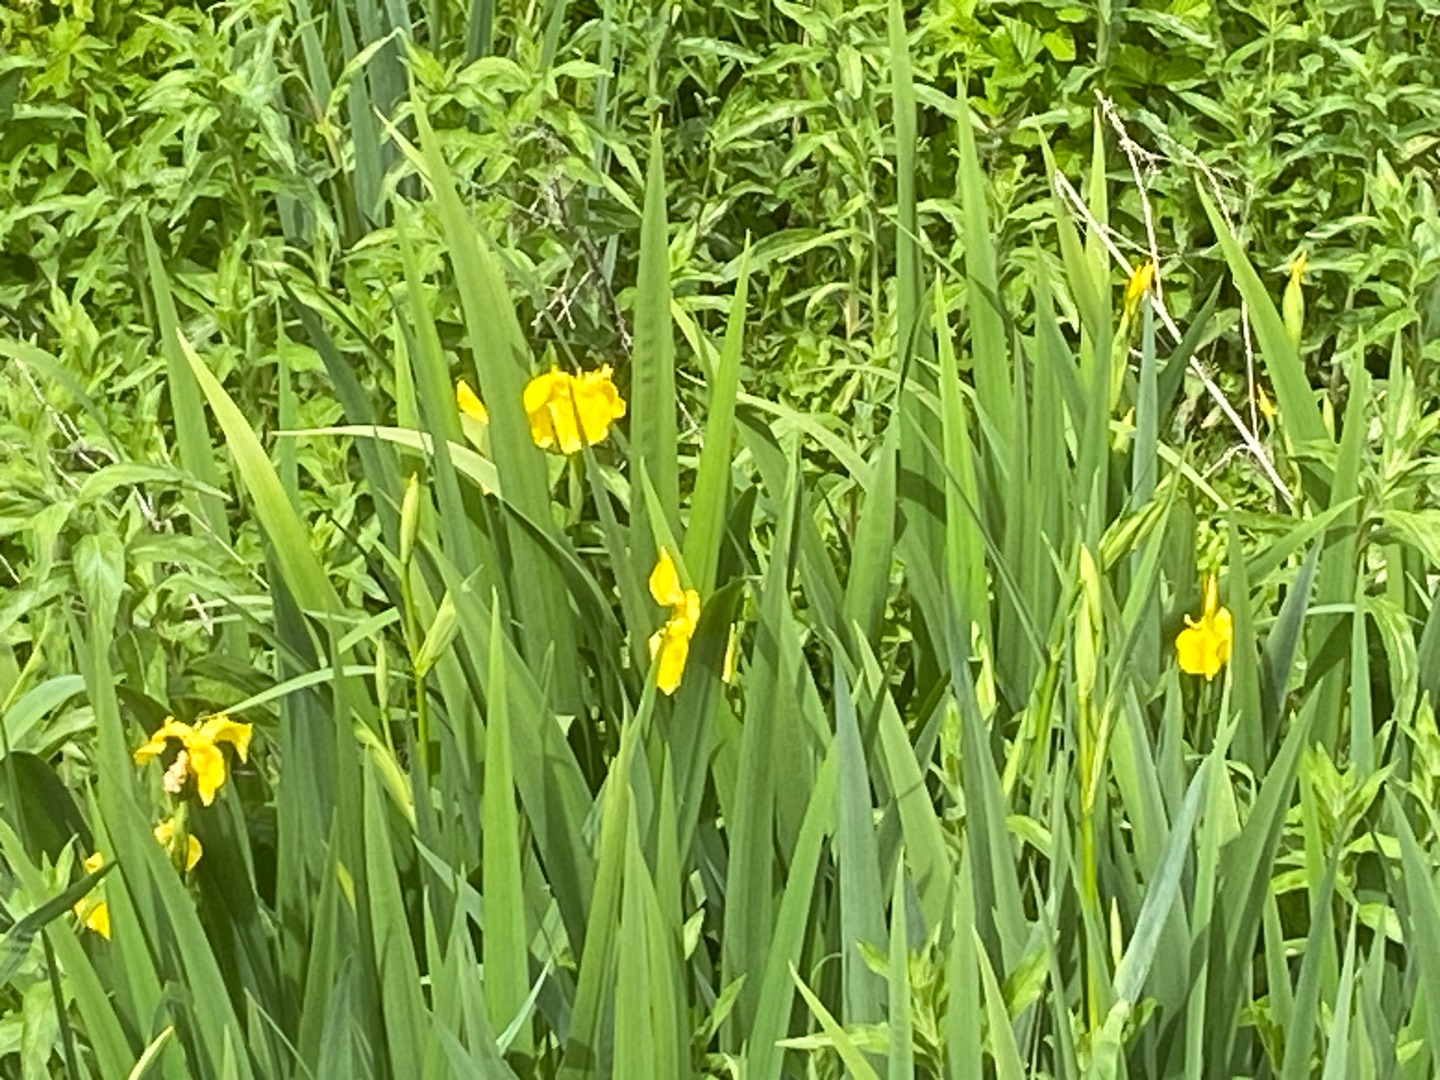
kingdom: Plantae
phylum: Tracheophyta
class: Liliopsida
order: Asparagales
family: Iridaceae
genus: Iris
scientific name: Iris pseudacorus
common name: Gul iris
